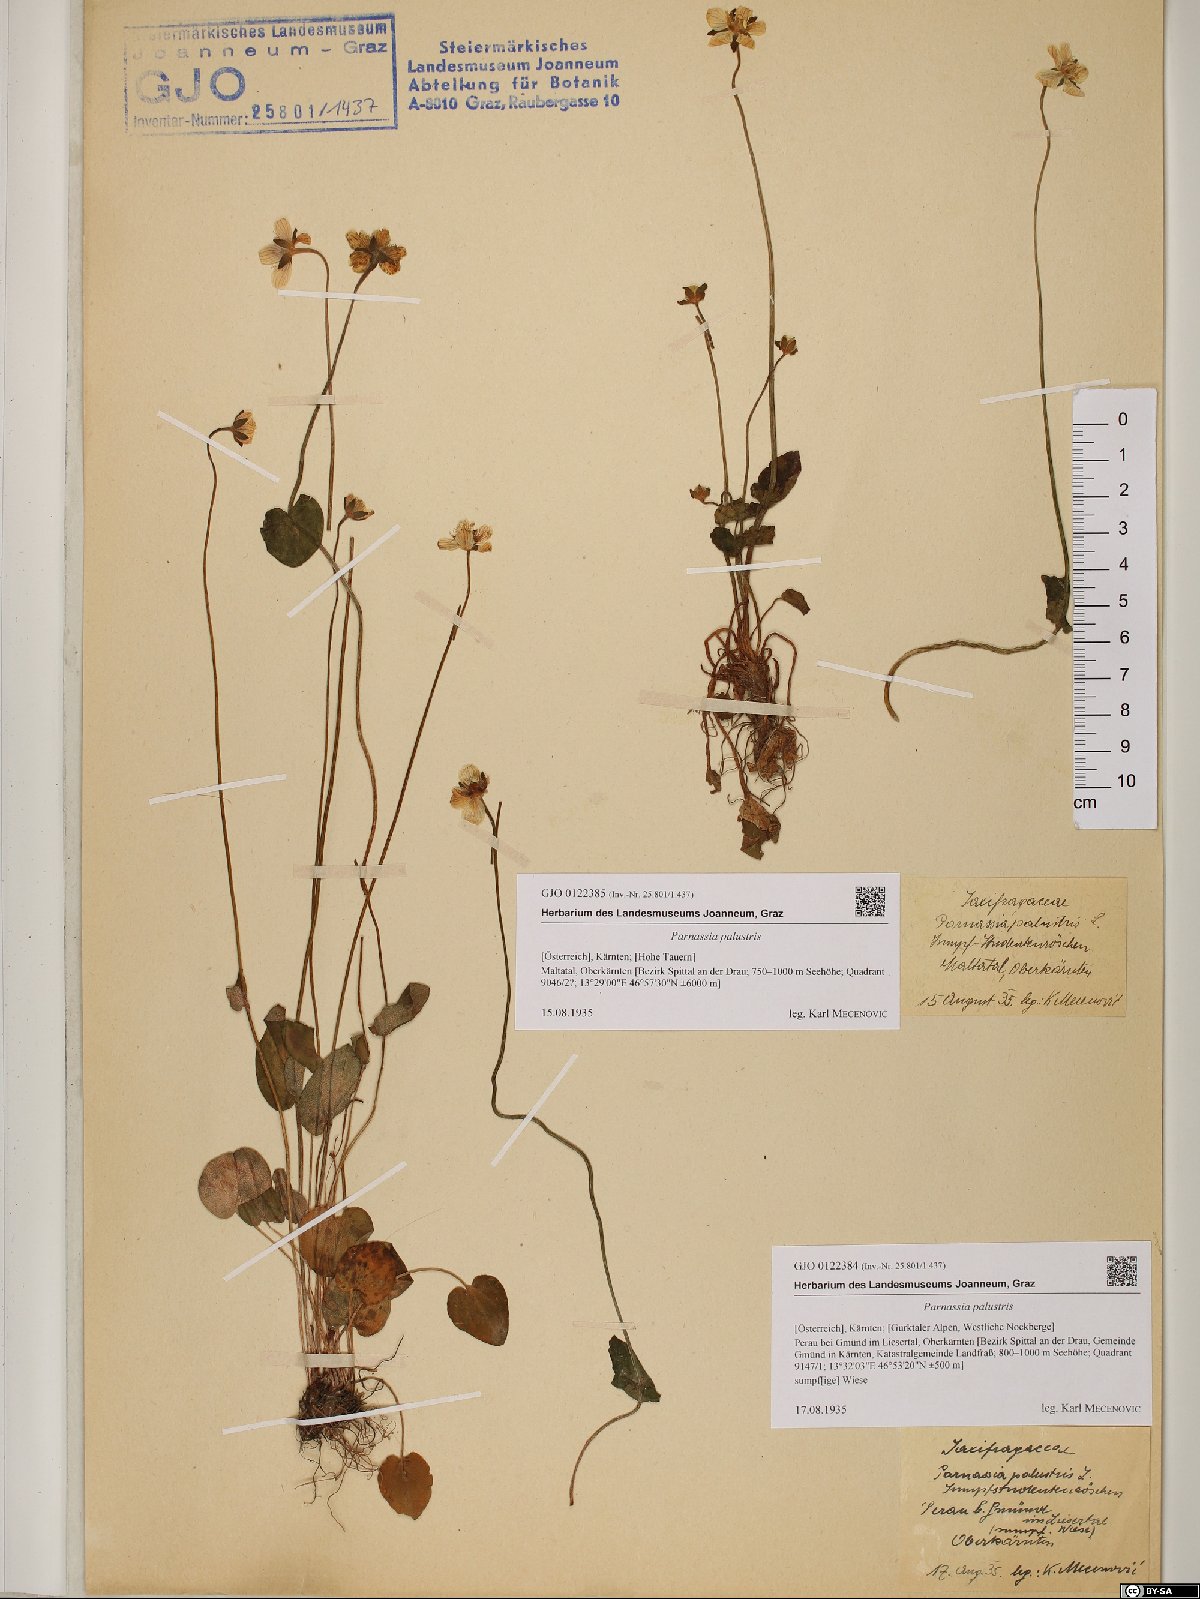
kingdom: Plantae
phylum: Tracheophyta
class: Magnoliopsida
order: Celastrales
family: Parnassiaceae
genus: Parnassia
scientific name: Parnassia palustris
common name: Grass-of-parnassus
